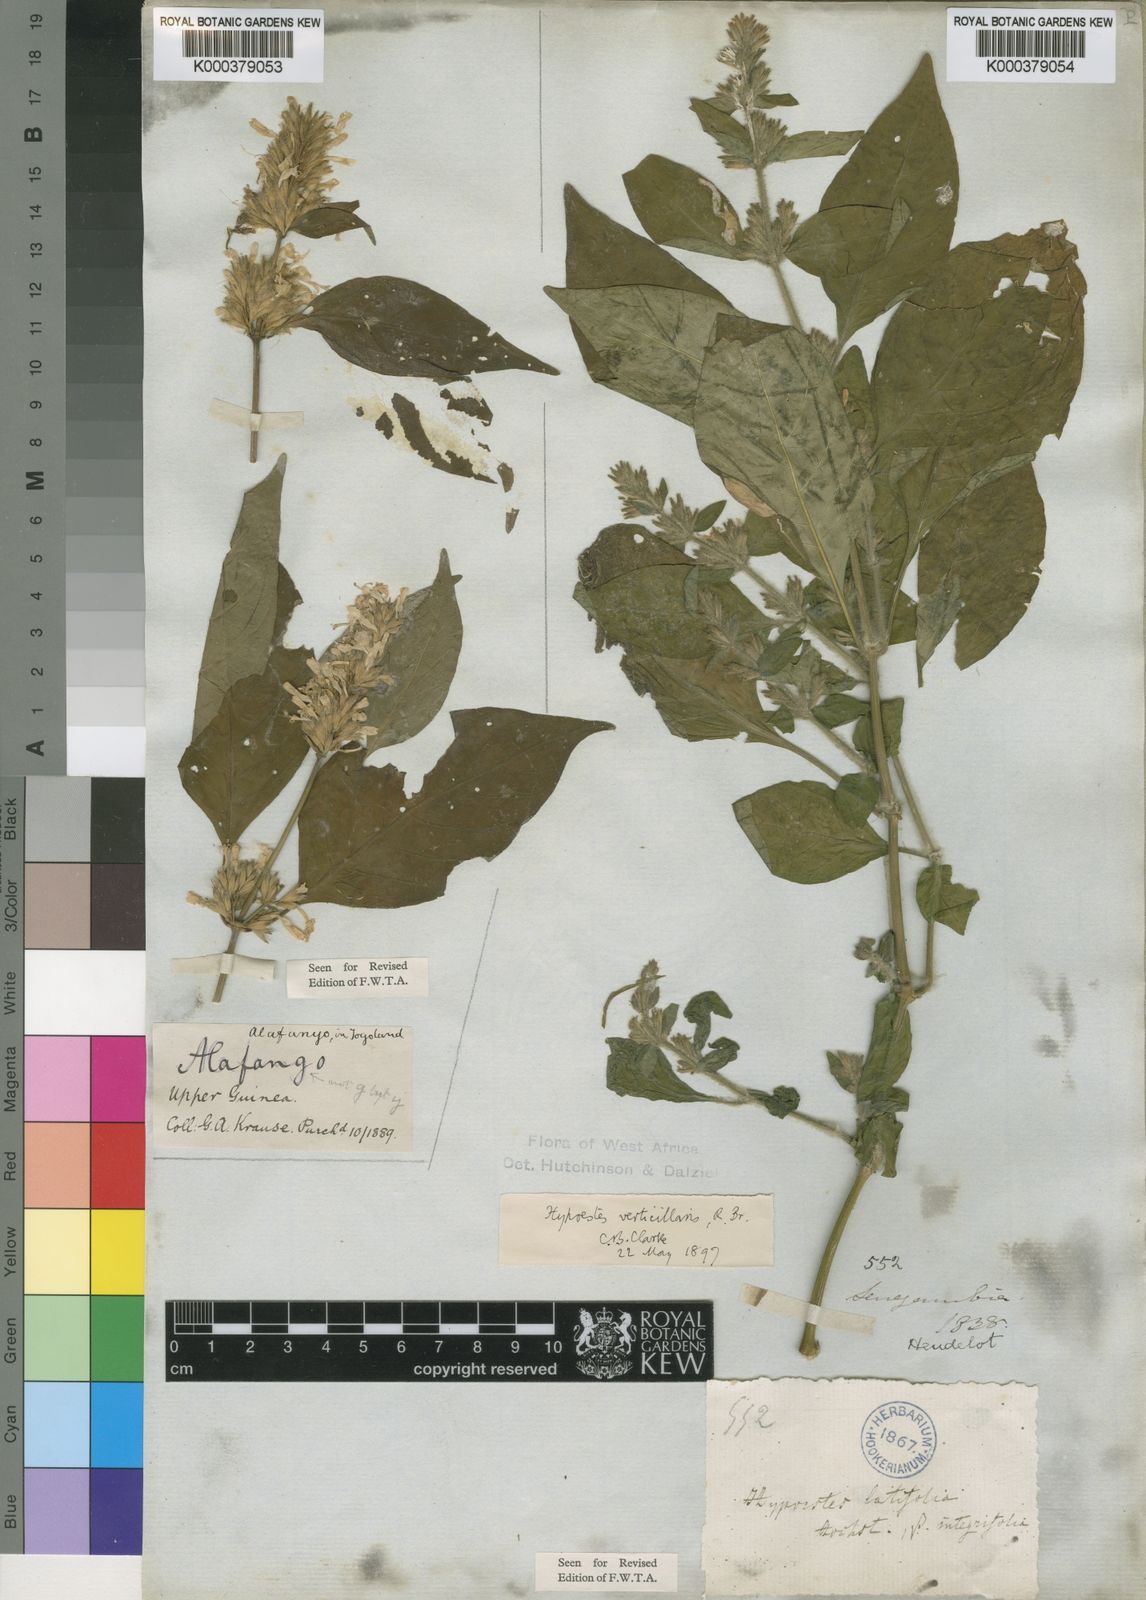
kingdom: Plantae
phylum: Tracheophyta
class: Magnoliopsida
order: Lamiales
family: Acanthaceae
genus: Hypoestes
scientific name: Hypoestes
